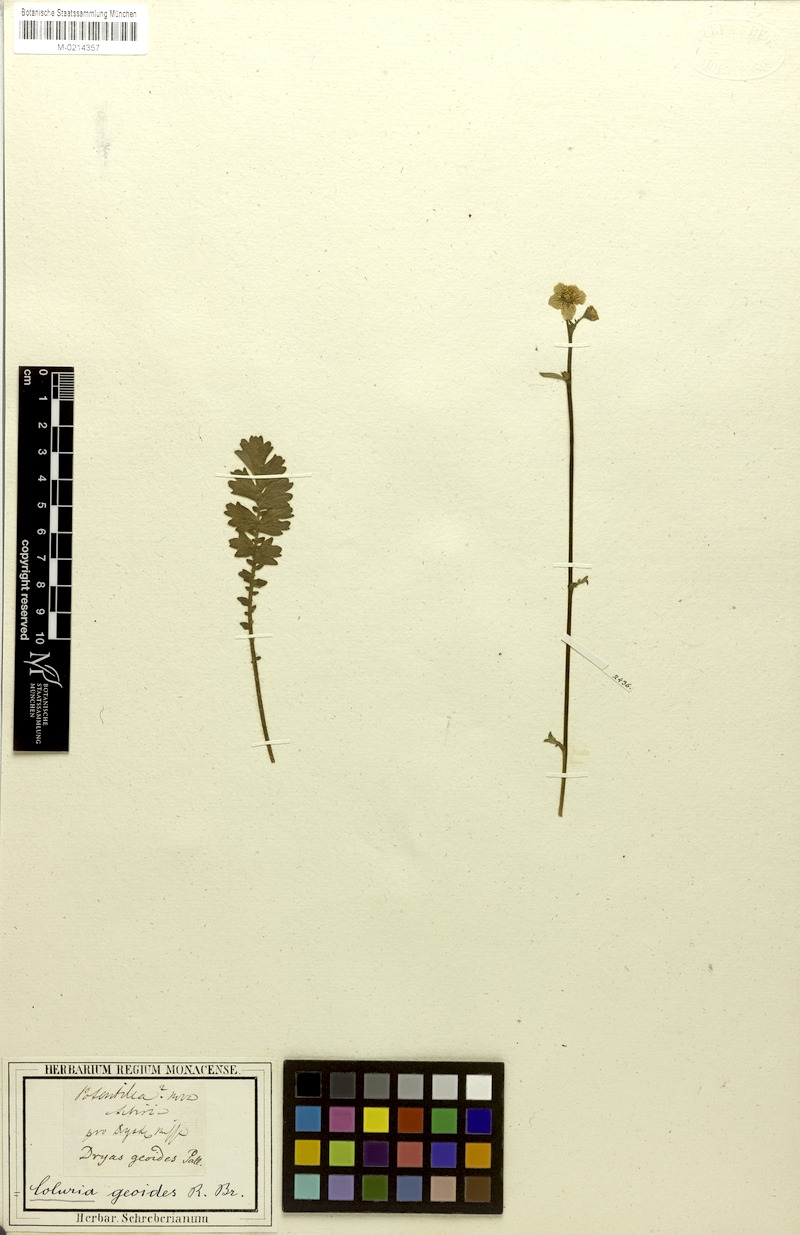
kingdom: Plantae
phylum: Tracheophyta
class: Magnoliopsida
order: Rosales
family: Rosaceae
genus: Geum
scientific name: Geum geoides
